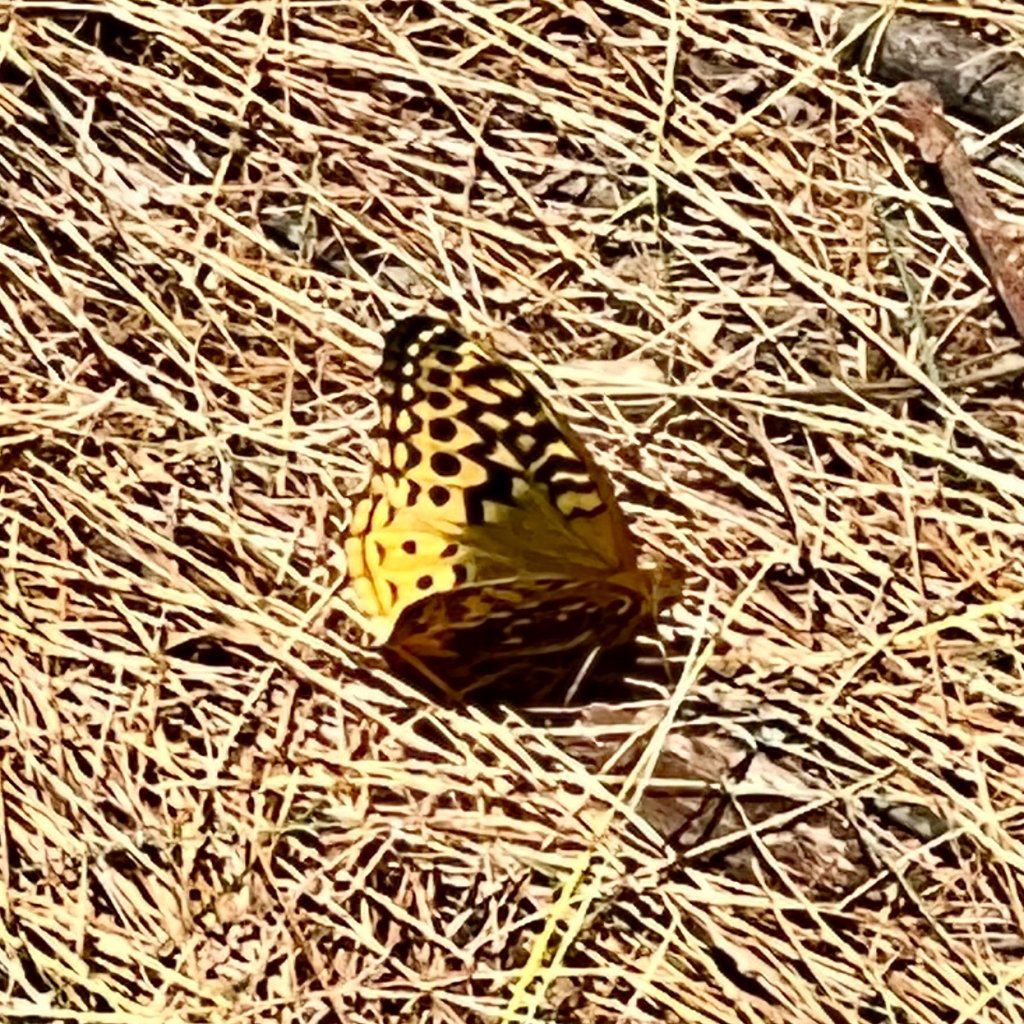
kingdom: Animalia
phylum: Arthropoda
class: Insecta
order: Lepidoptera
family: Nymphalidae
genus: Speyeria
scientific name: Speyeria cybele
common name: Great Spangled Fritillary
